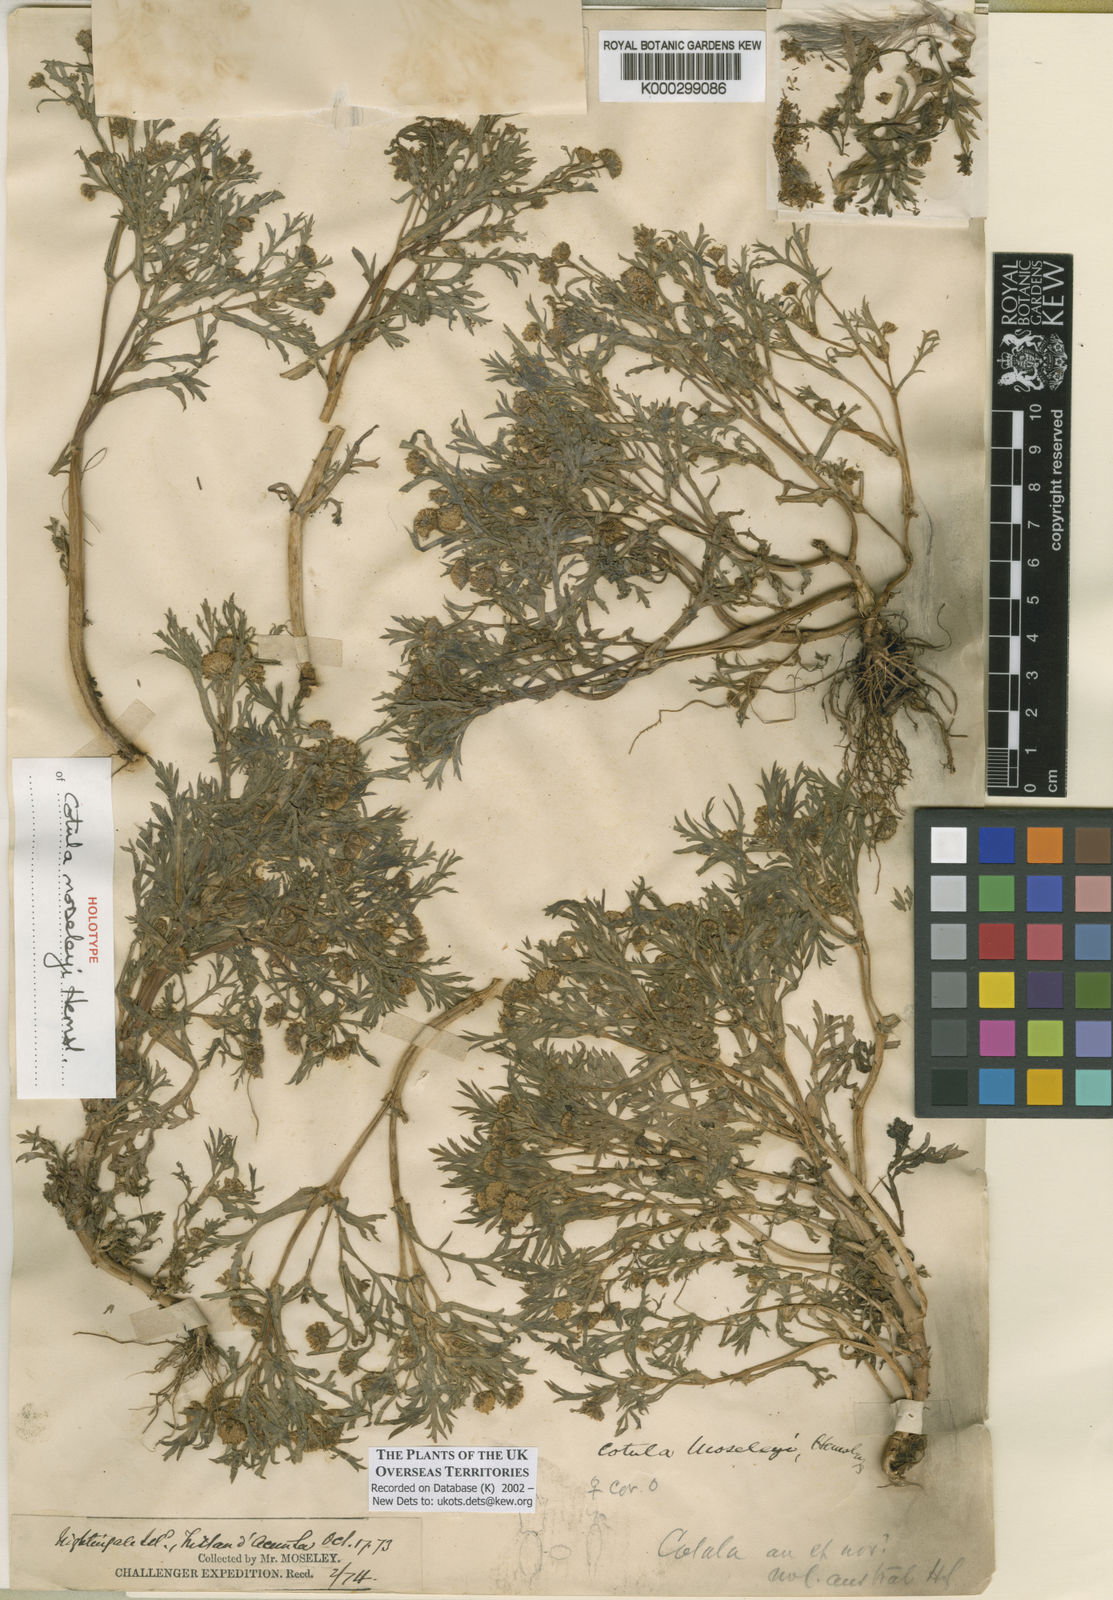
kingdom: Plantae
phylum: Tracheophyta
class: Magnoliopsida
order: Asterales
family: Asteraceae
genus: Cotula
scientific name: Cotula moseleyi
